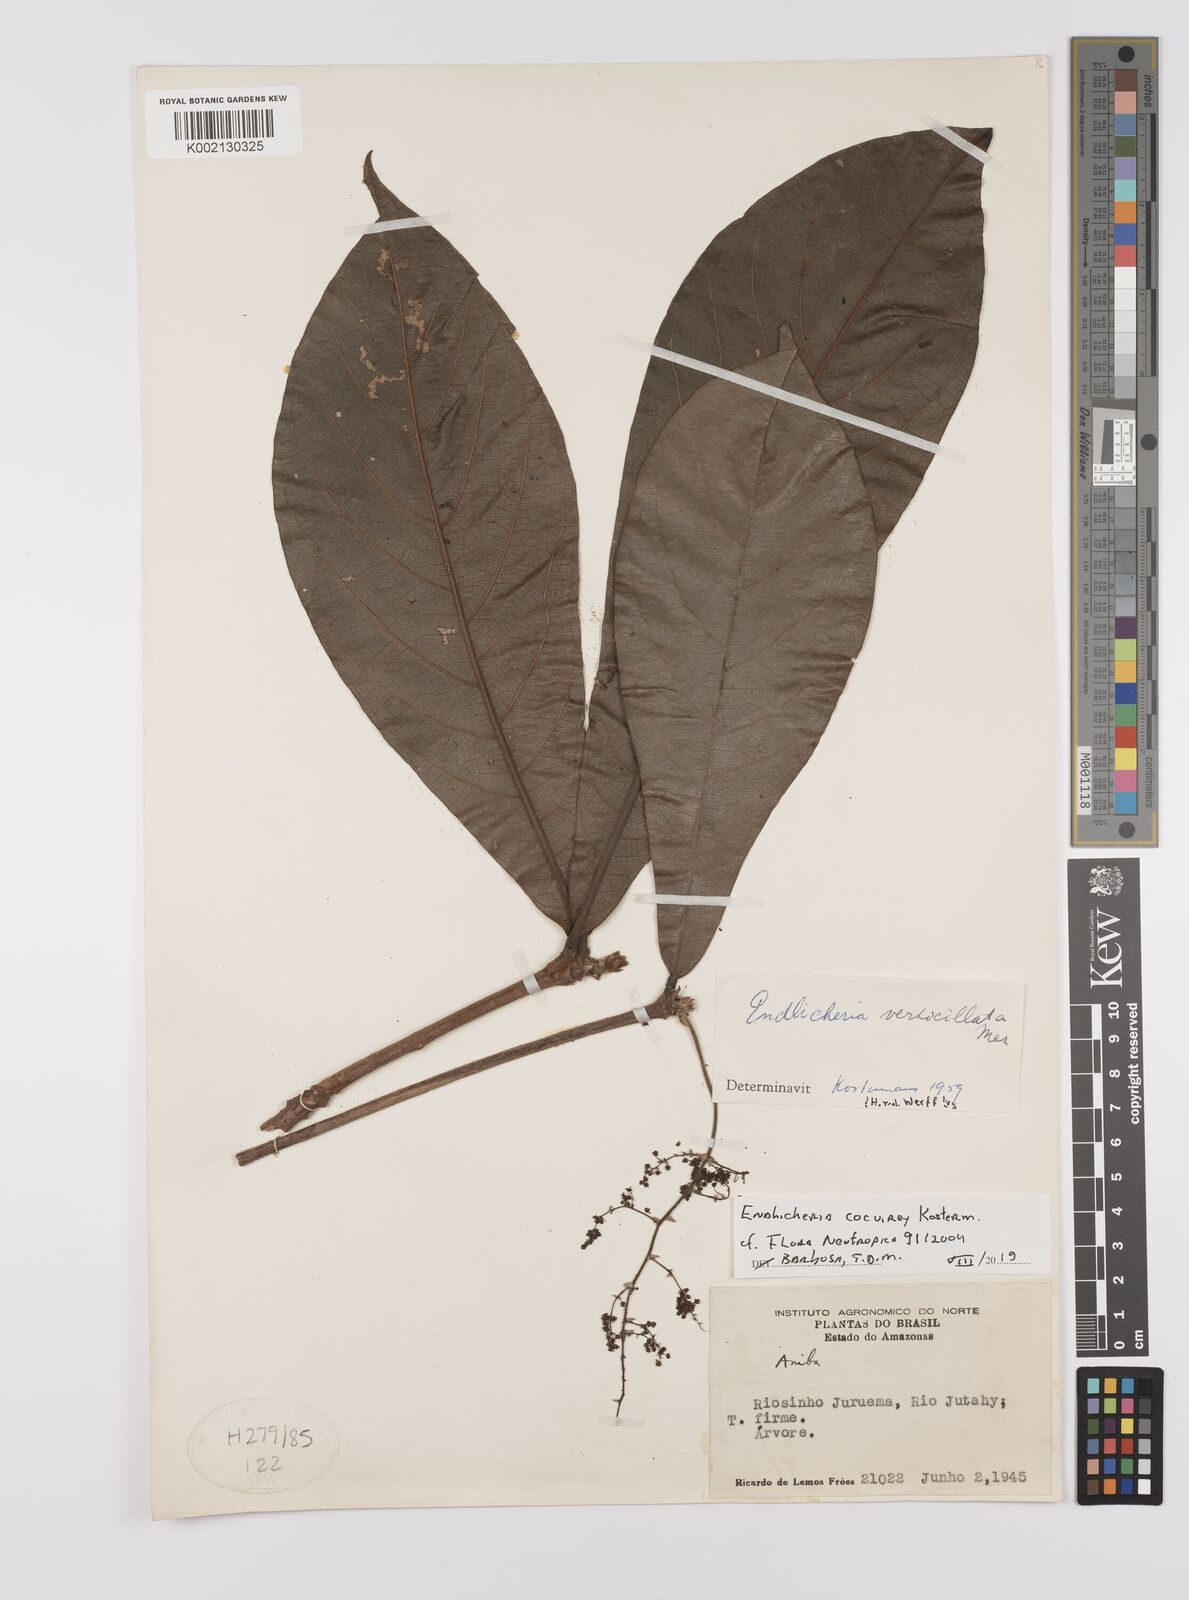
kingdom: Plantae
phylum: Tracheophyta
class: Magnoliopsida
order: Laurales
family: Lauraceae
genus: Endlicheria
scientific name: Endlicheria cocuirey
